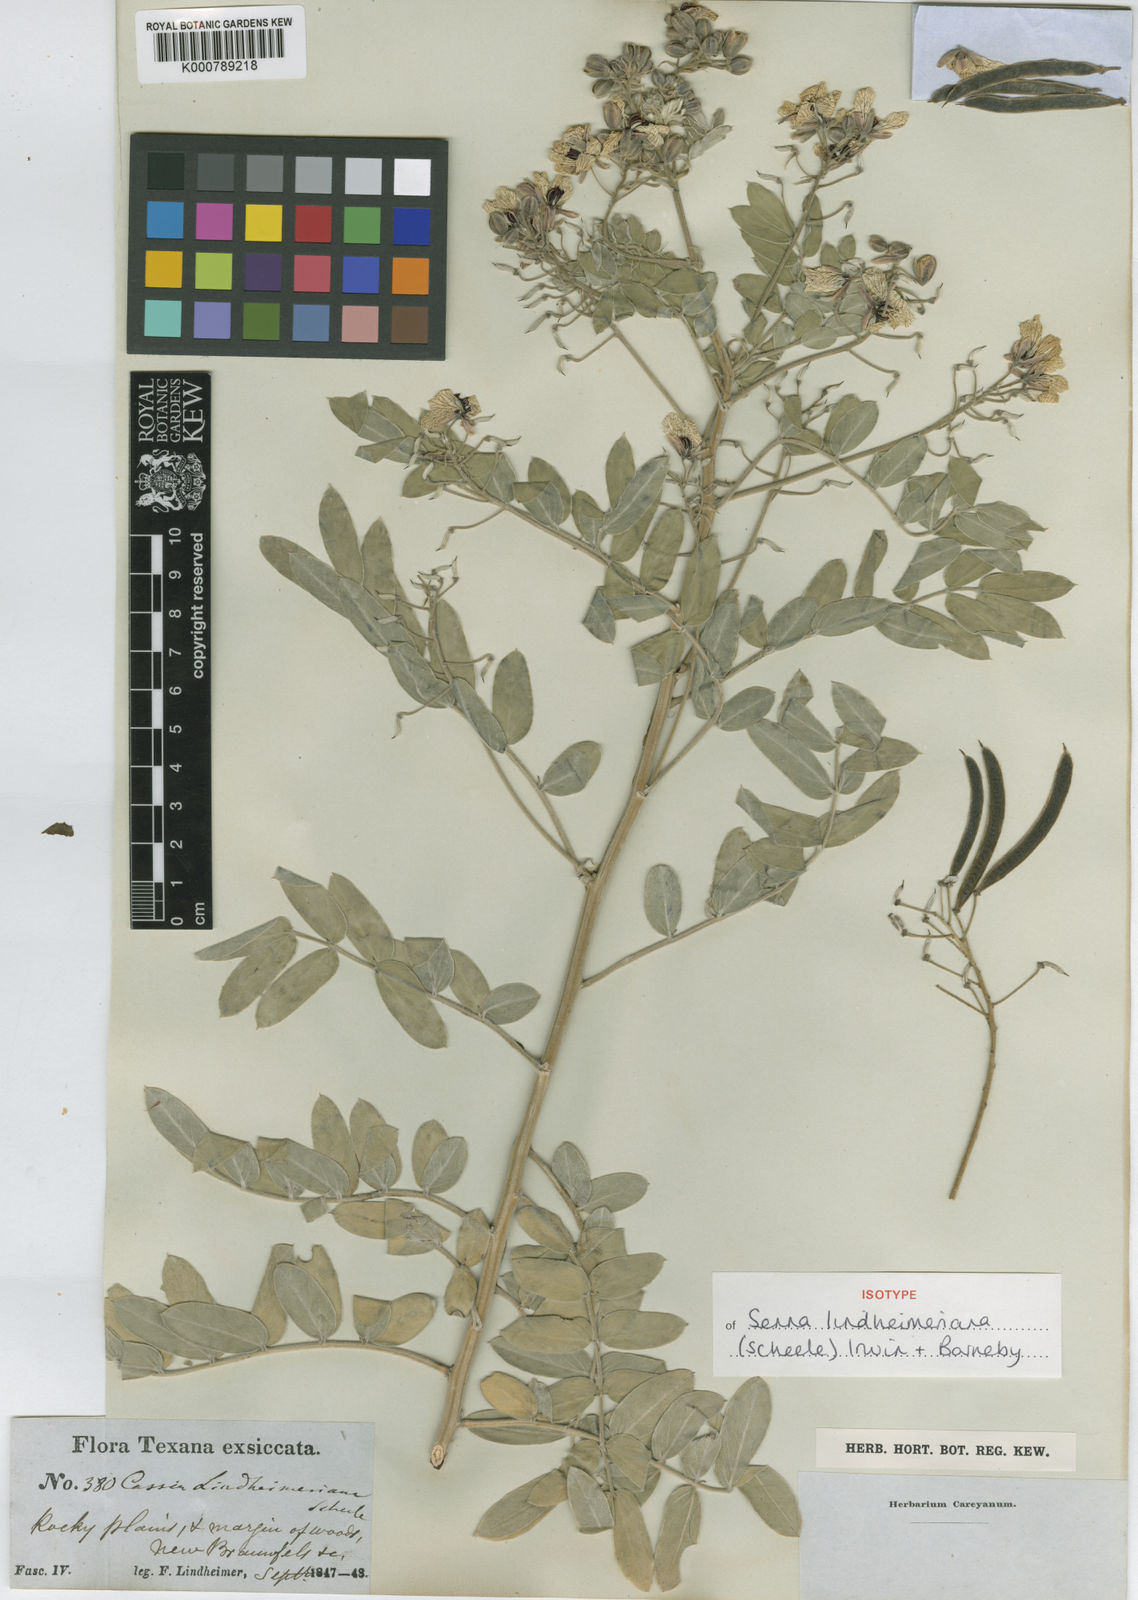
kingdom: Plantae
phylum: Tracheophyta
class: Magnoliopsida
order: Fabales
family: Fabaceae
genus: Senna
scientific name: Senna lindheimeriana
